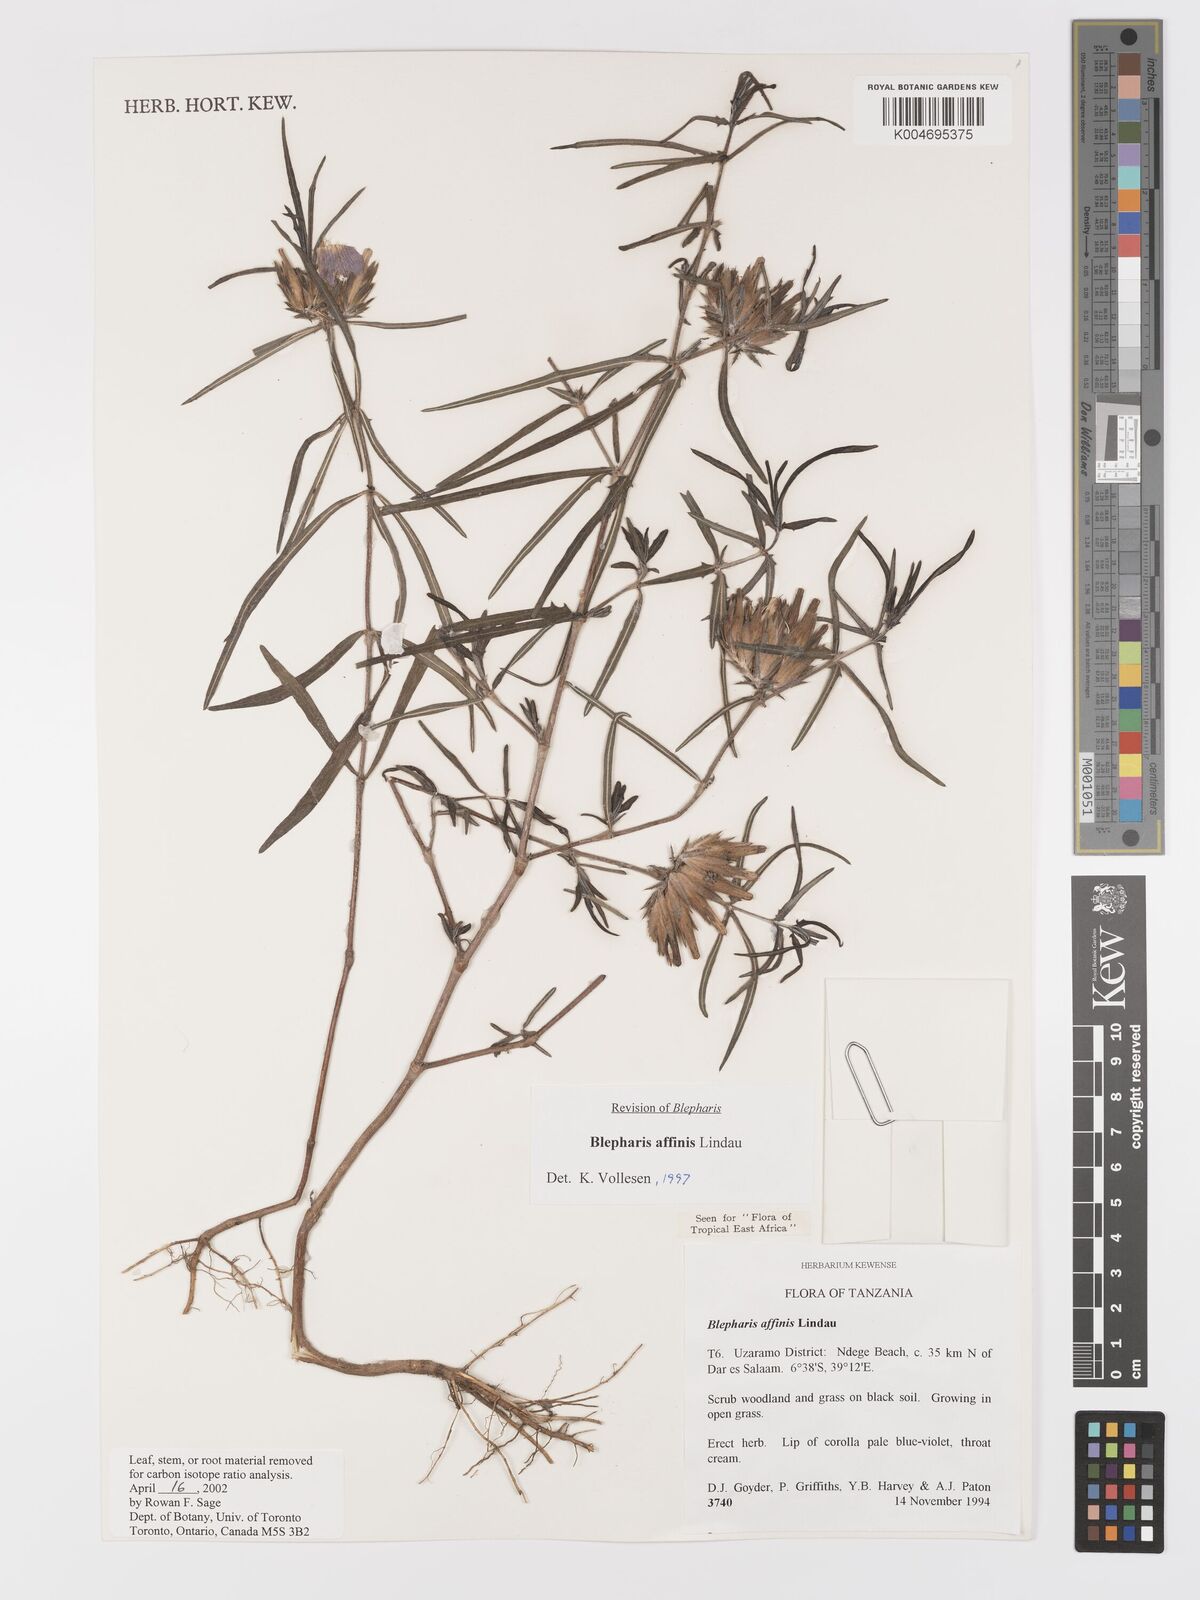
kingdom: Plantae
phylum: Tracheophyta
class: Magnoliopsida
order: Lamiales
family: Acanthaceae
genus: Blepharis
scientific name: Blepharis affinis
